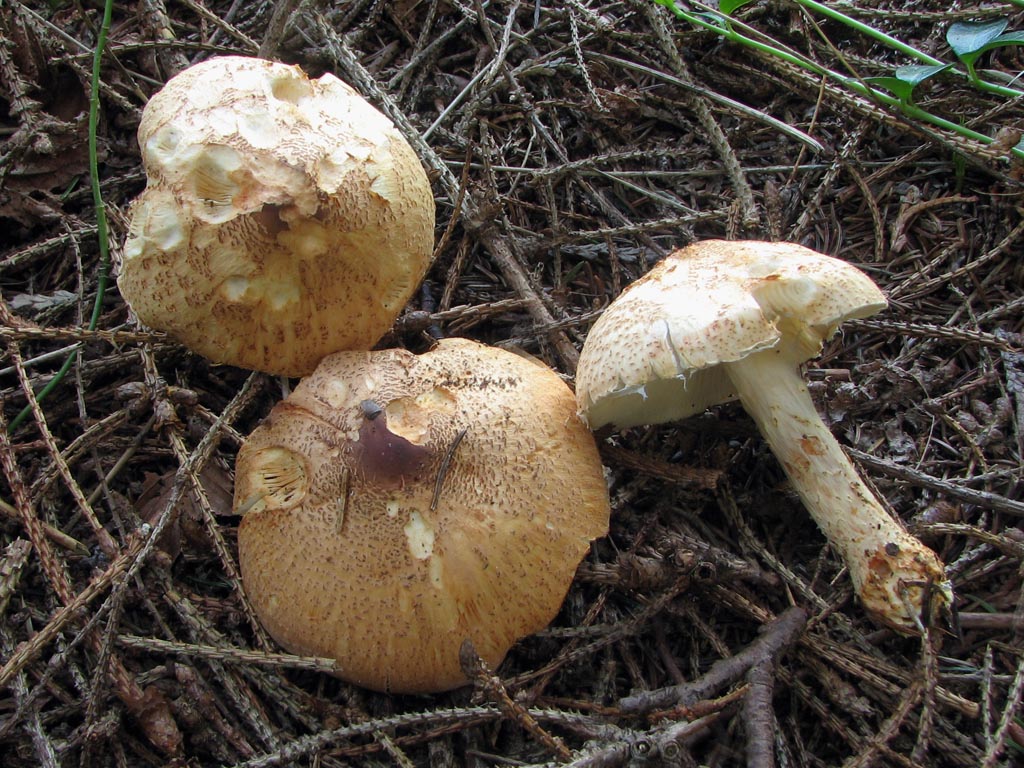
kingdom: Fungi
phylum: Basidiomycota
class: Agaricomycetes
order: Agaricales
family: Agaricaceae
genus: Lepiota
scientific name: Lepiota ochraceofulva
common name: sødtduftende parasolhat
